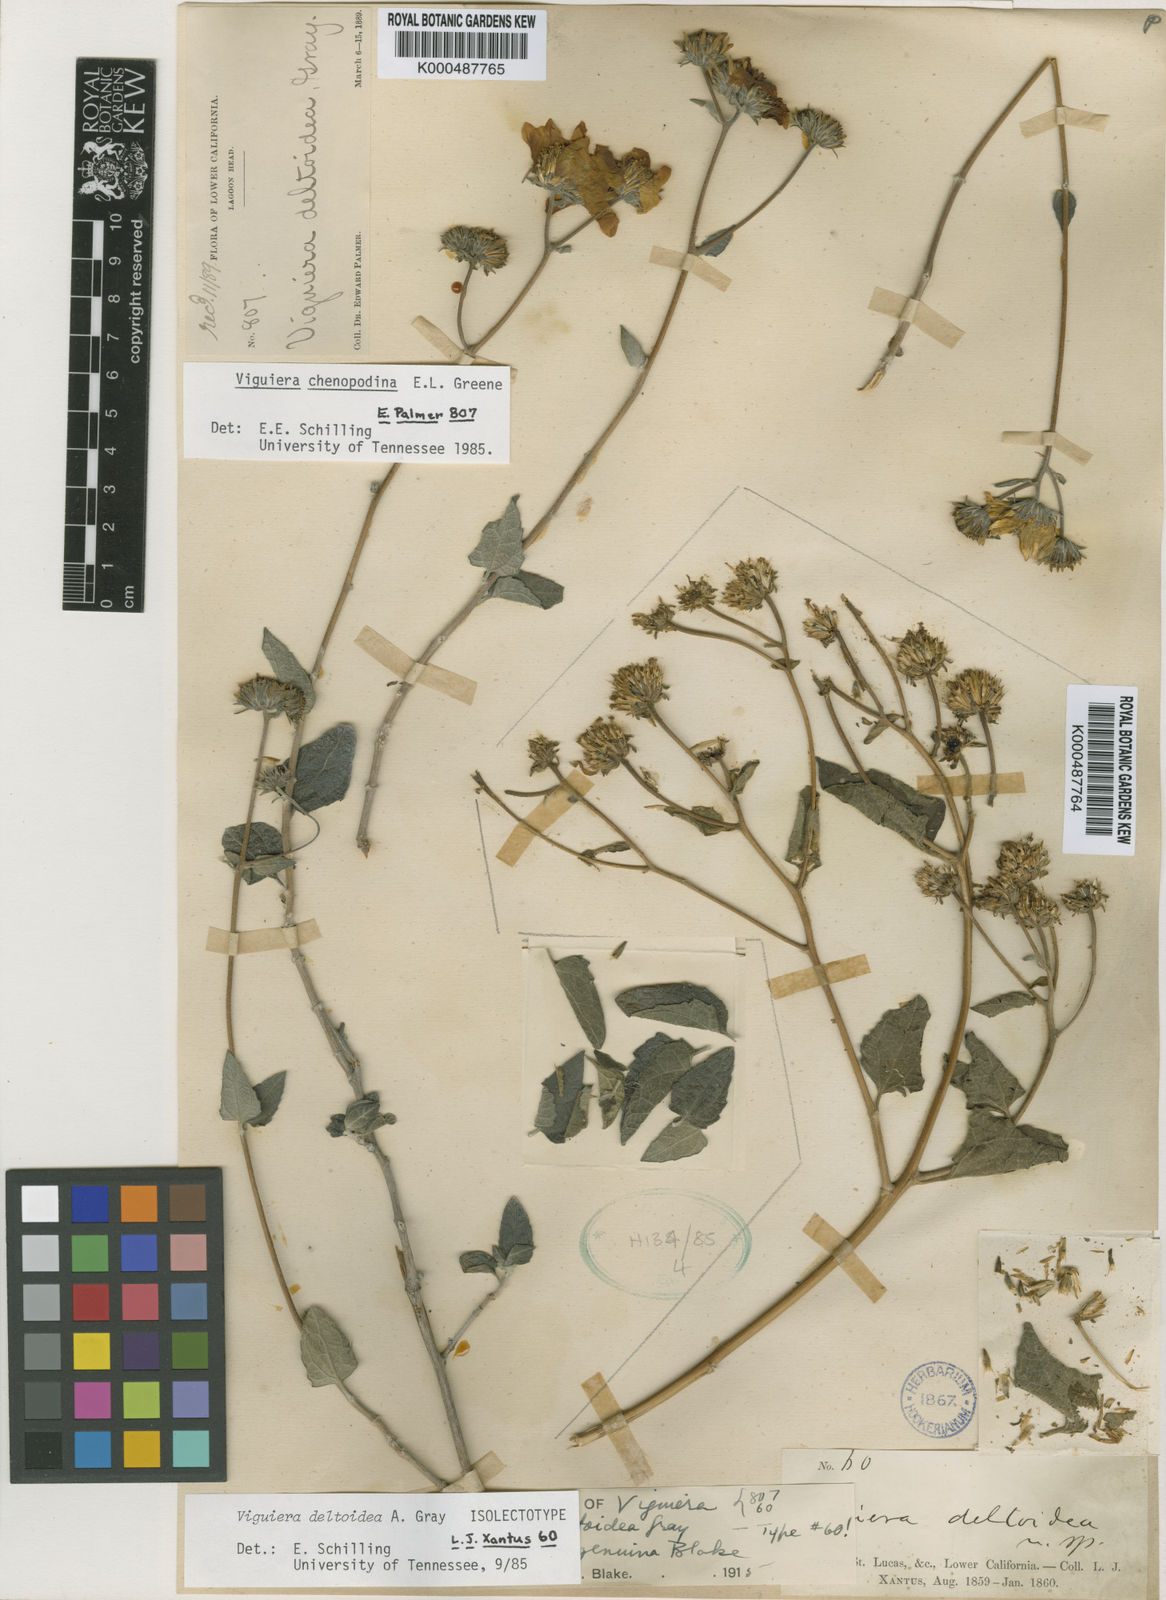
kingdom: Plantae
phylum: Tracheophyta
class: Magnoliopsida
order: Asterales
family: Asteraceae
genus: Bahiopsis
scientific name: Bahiopsis deltoidea
